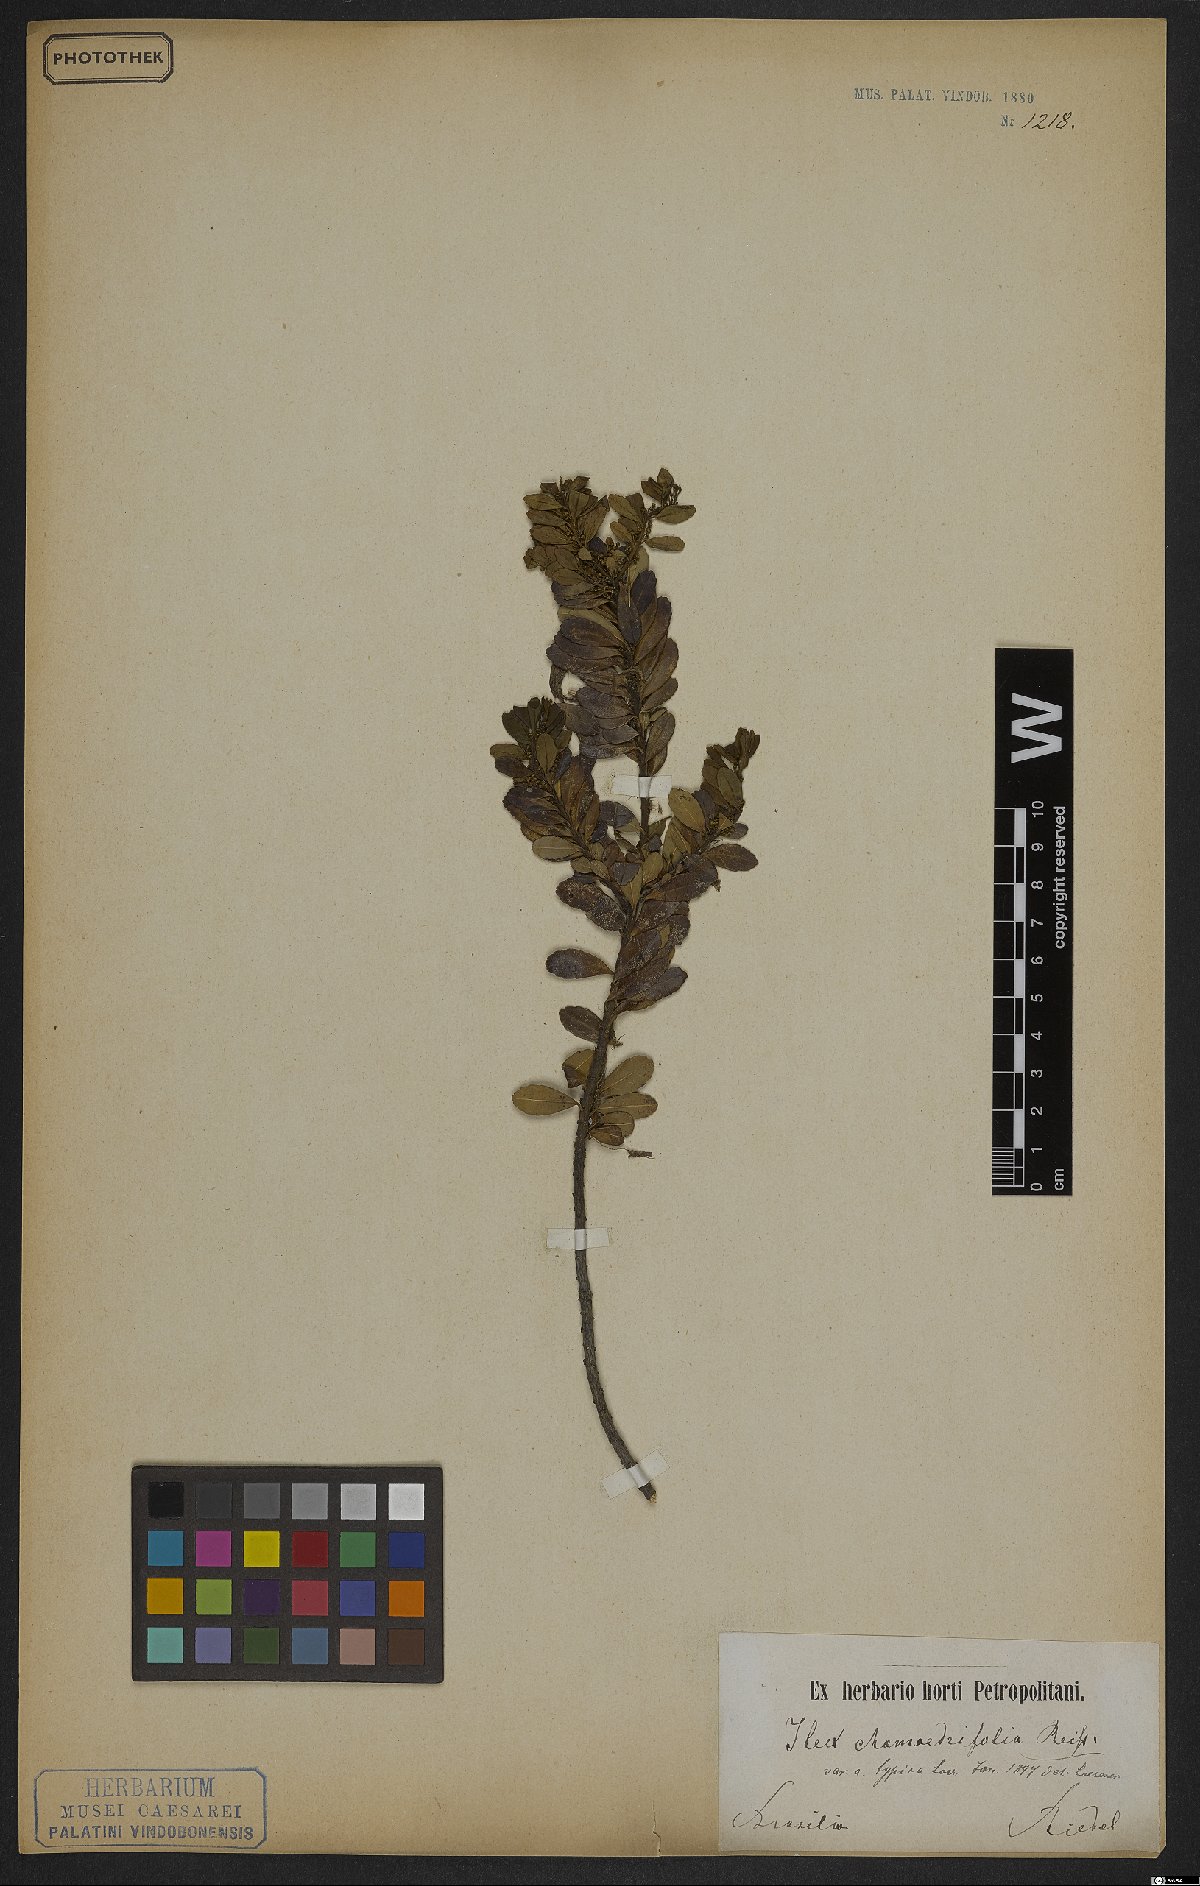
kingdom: Plantae
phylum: Tracheophyta
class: Magnoliopsida
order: Aquifoliales
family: Aquifoliaceae
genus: Ilex
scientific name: Ilex chamaedryfolia
